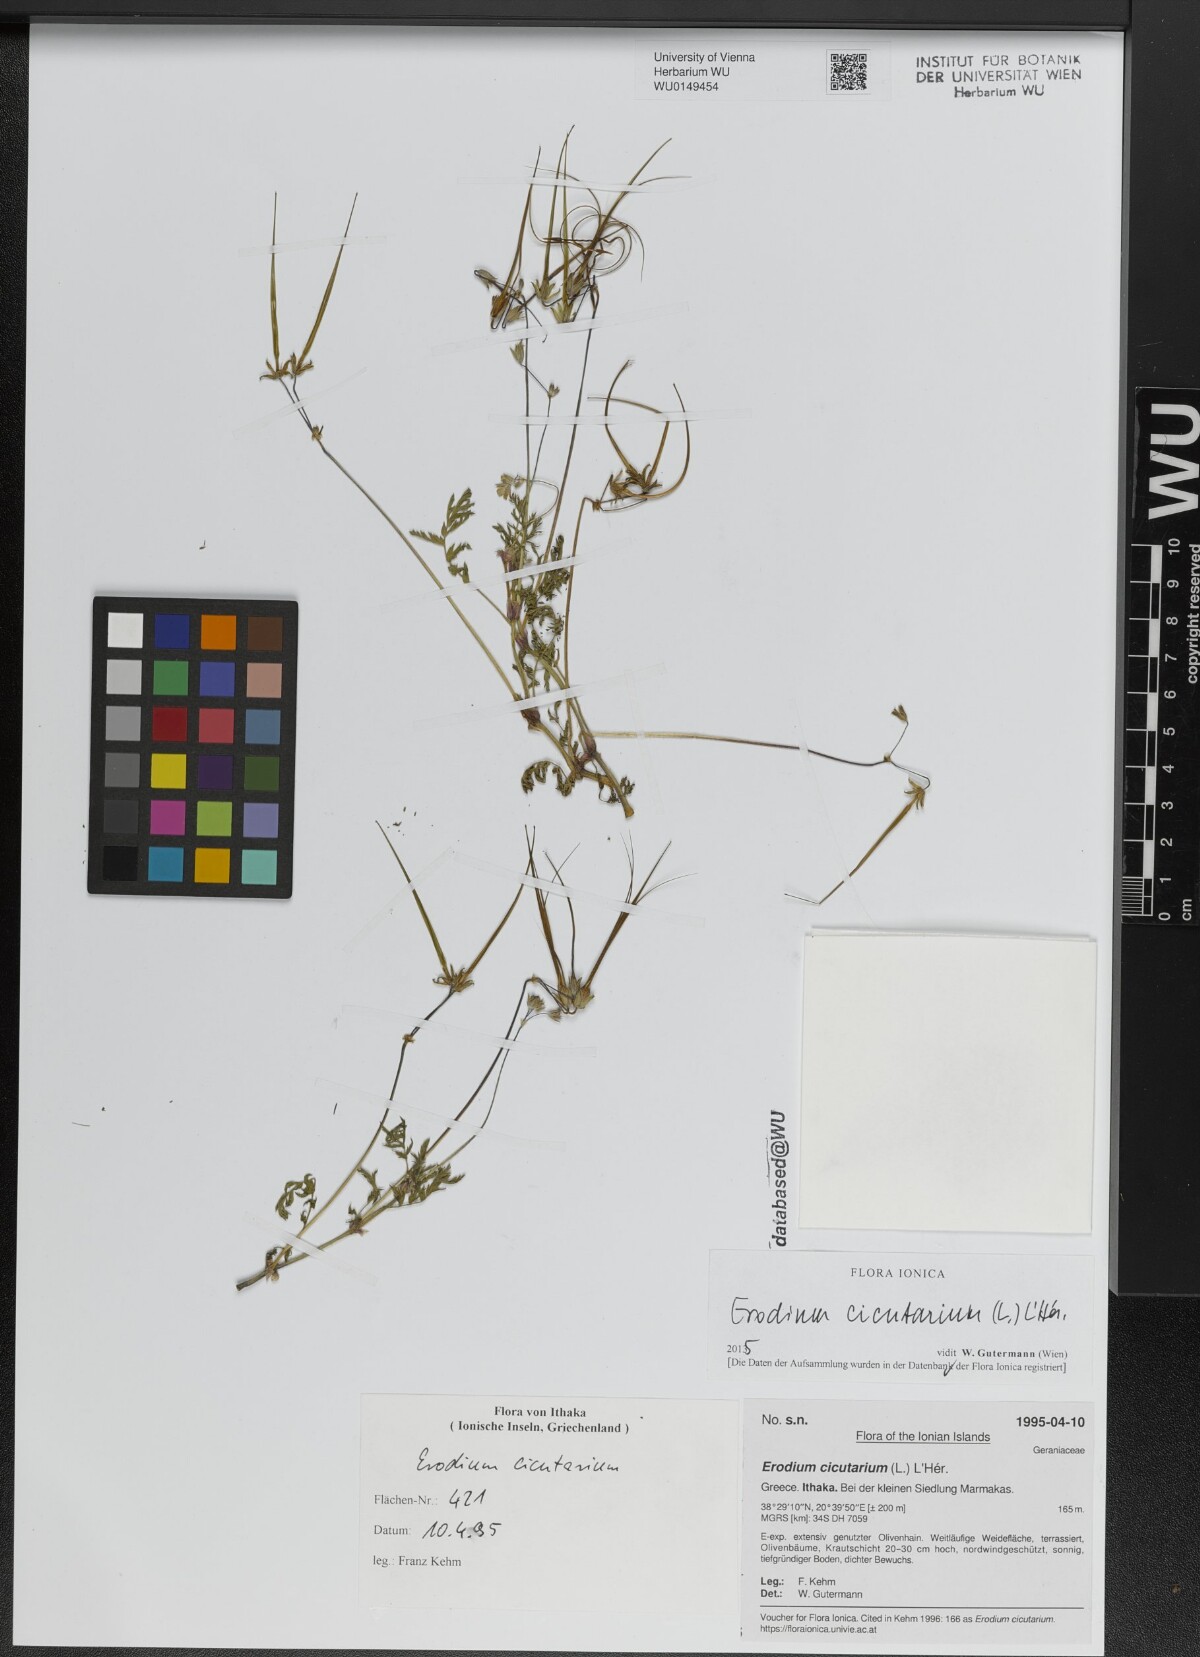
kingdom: Plantae
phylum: Tracheophyta
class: Magnoliopsida
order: Geraniales
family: Geraniaceae
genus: Erodium
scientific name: Erodium cicutarium
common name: Common stork's-bill
